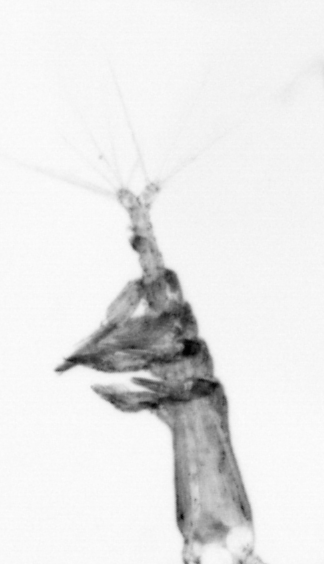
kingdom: Animalia
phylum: Arthropoda
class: Copepoda
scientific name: Copepoda
